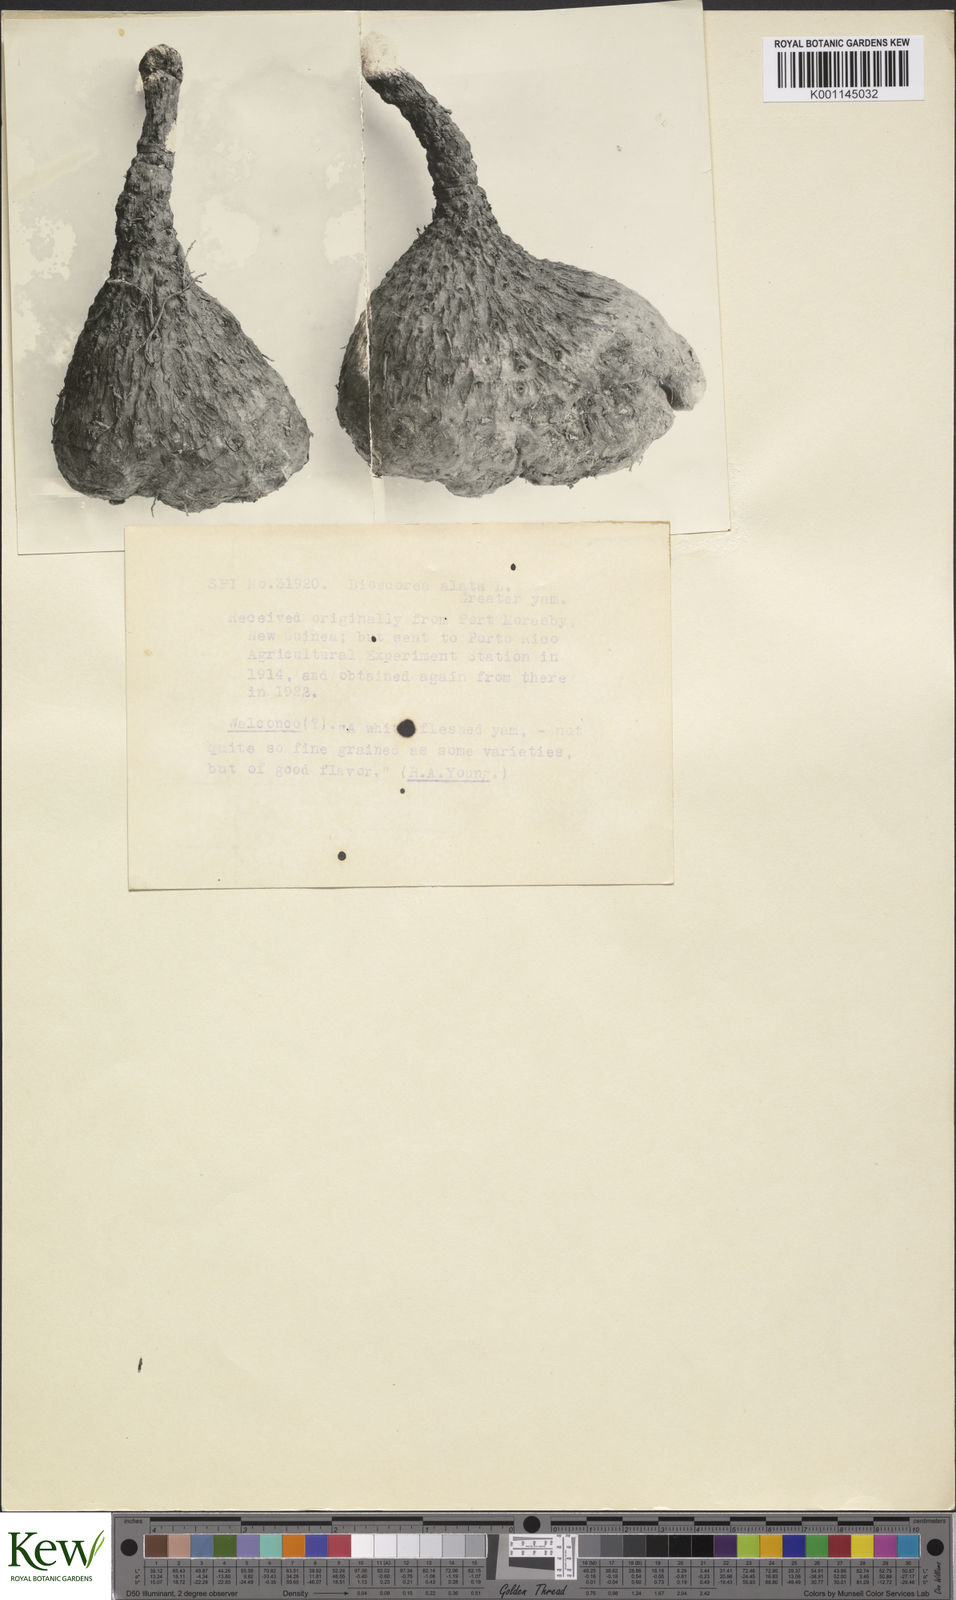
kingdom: Plantae
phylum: Tracheophyta
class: Liliopsida
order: Dioscoreales
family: Dioscoreaceae
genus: Dioscorea
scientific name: Dioscorea alata
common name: Water yam
